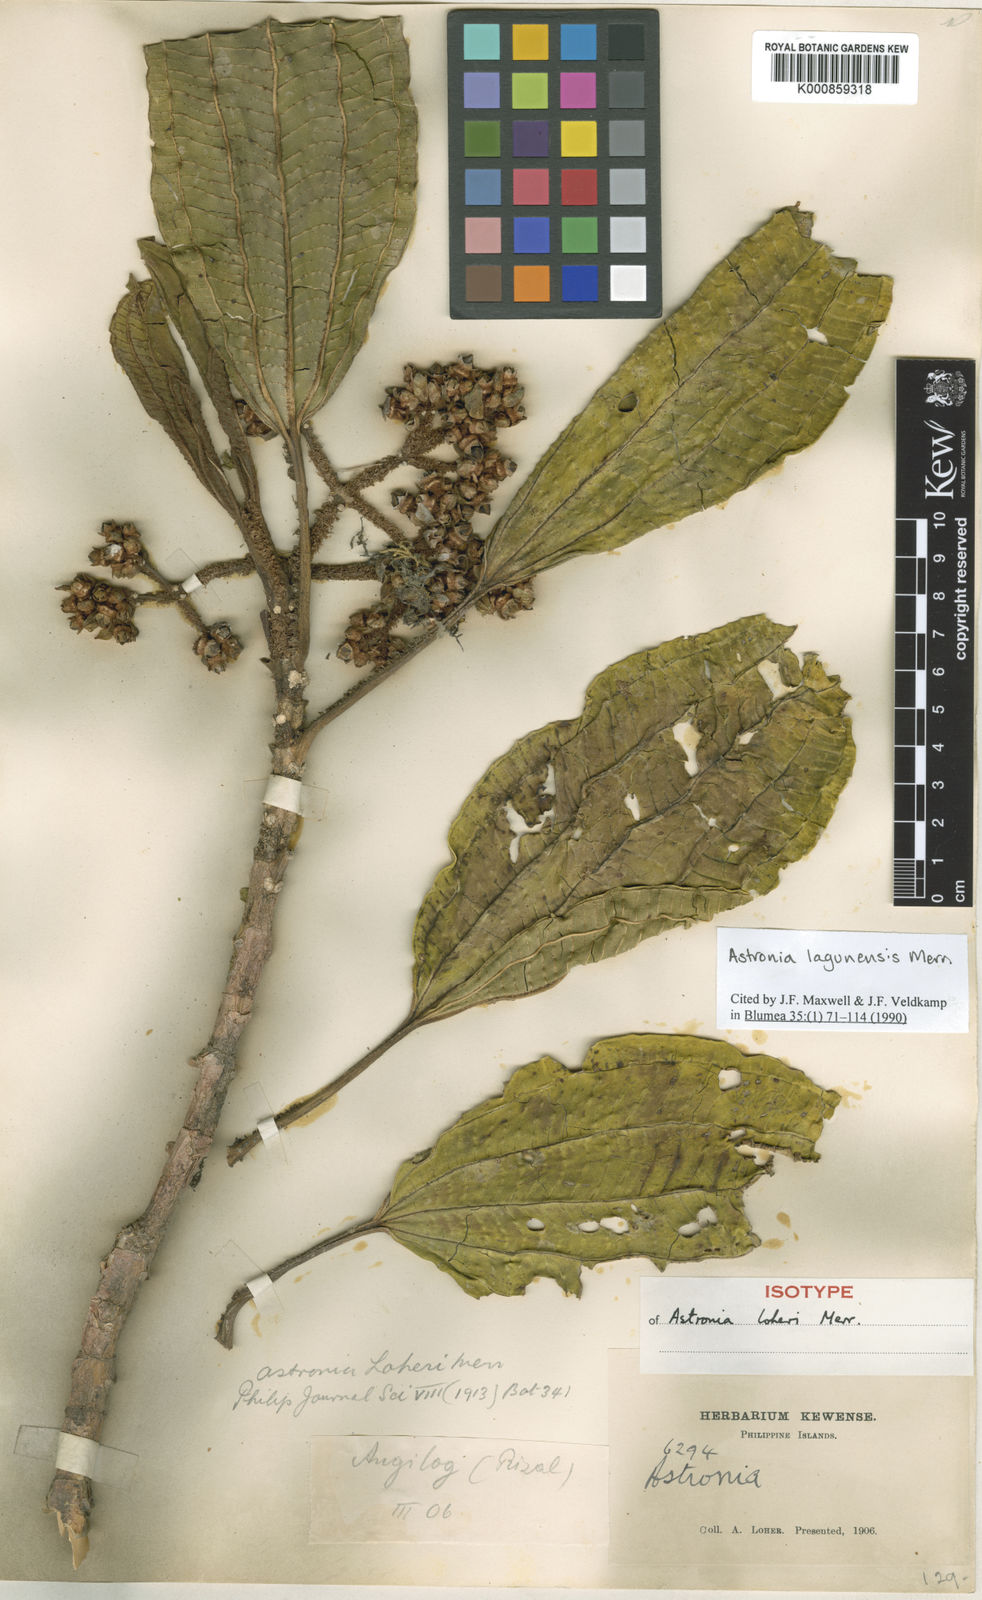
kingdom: Plantae
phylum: Tracheophyta
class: Magnoliopsida
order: Myrtales
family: Melastomataceae
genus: Astronia
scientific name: Astronia lagunensis
